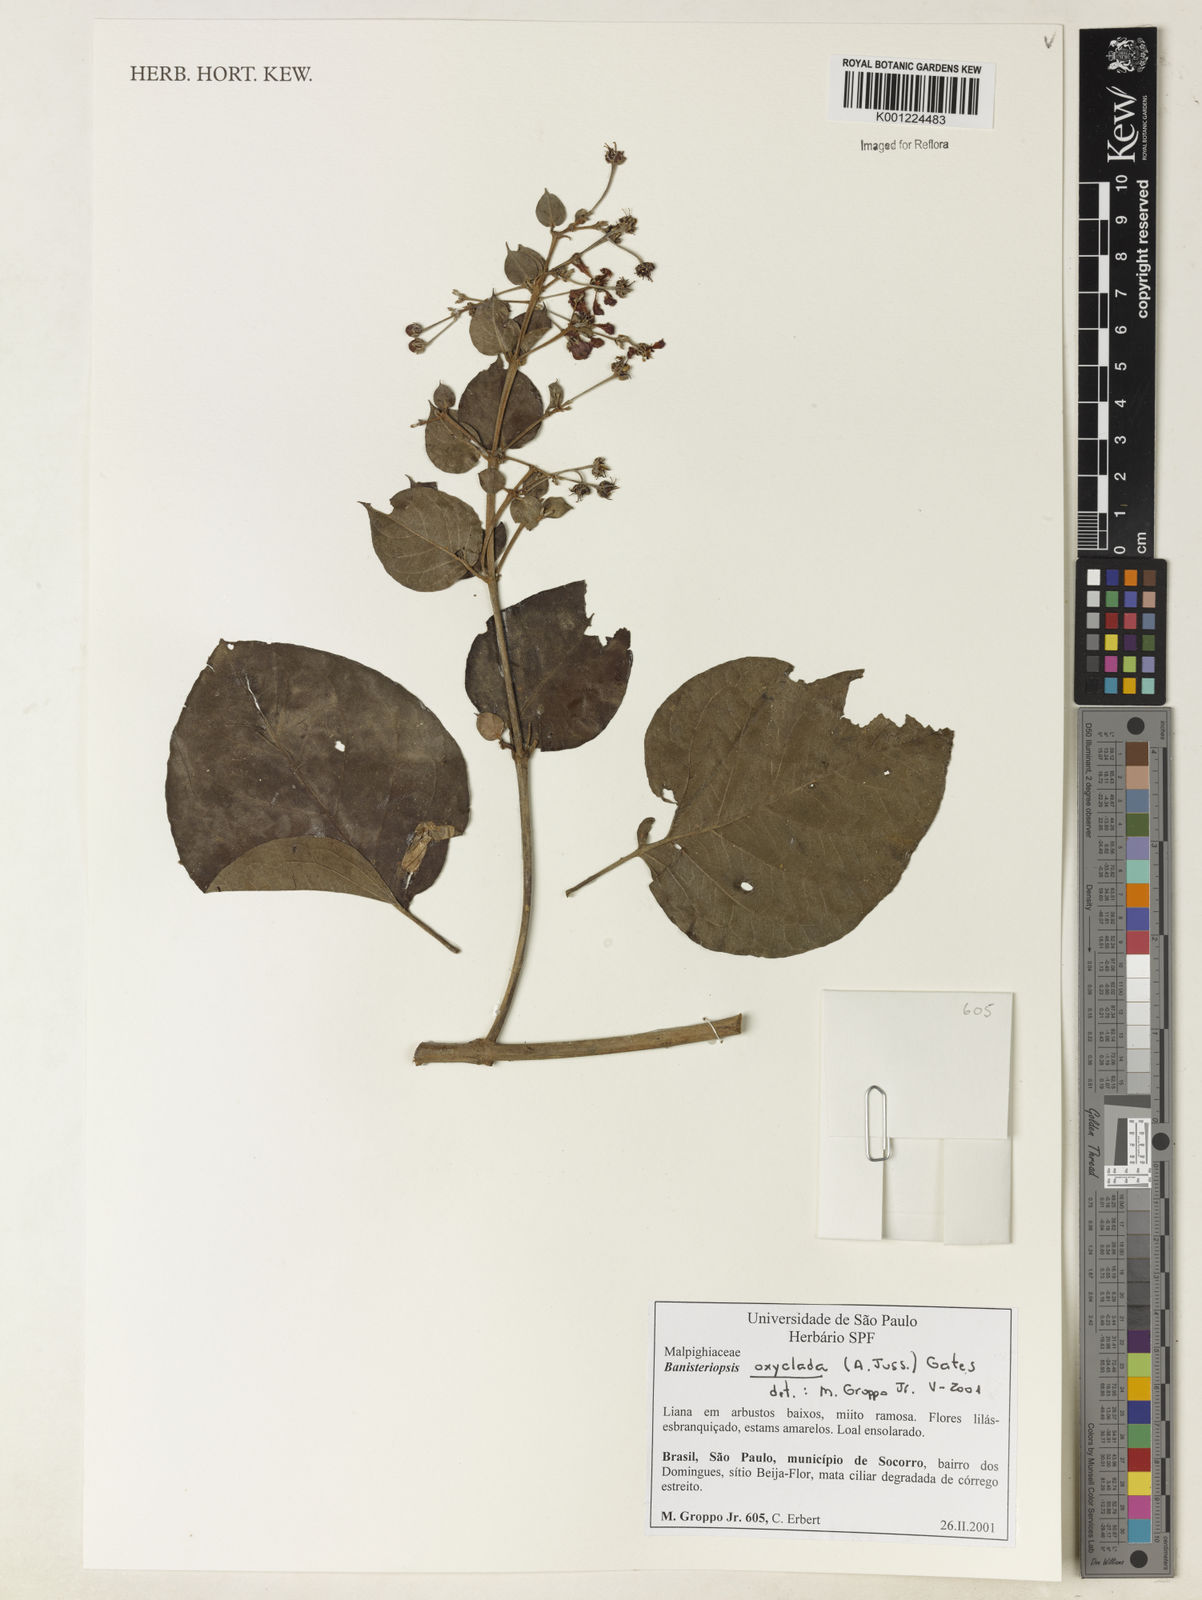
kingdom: Plantae
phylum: Tracheophyta
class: Magnoliopsida
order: Malpighiales
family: Malpighiaceae
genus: Banisteriopsis
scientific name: Banisteriopsis oxyclada
